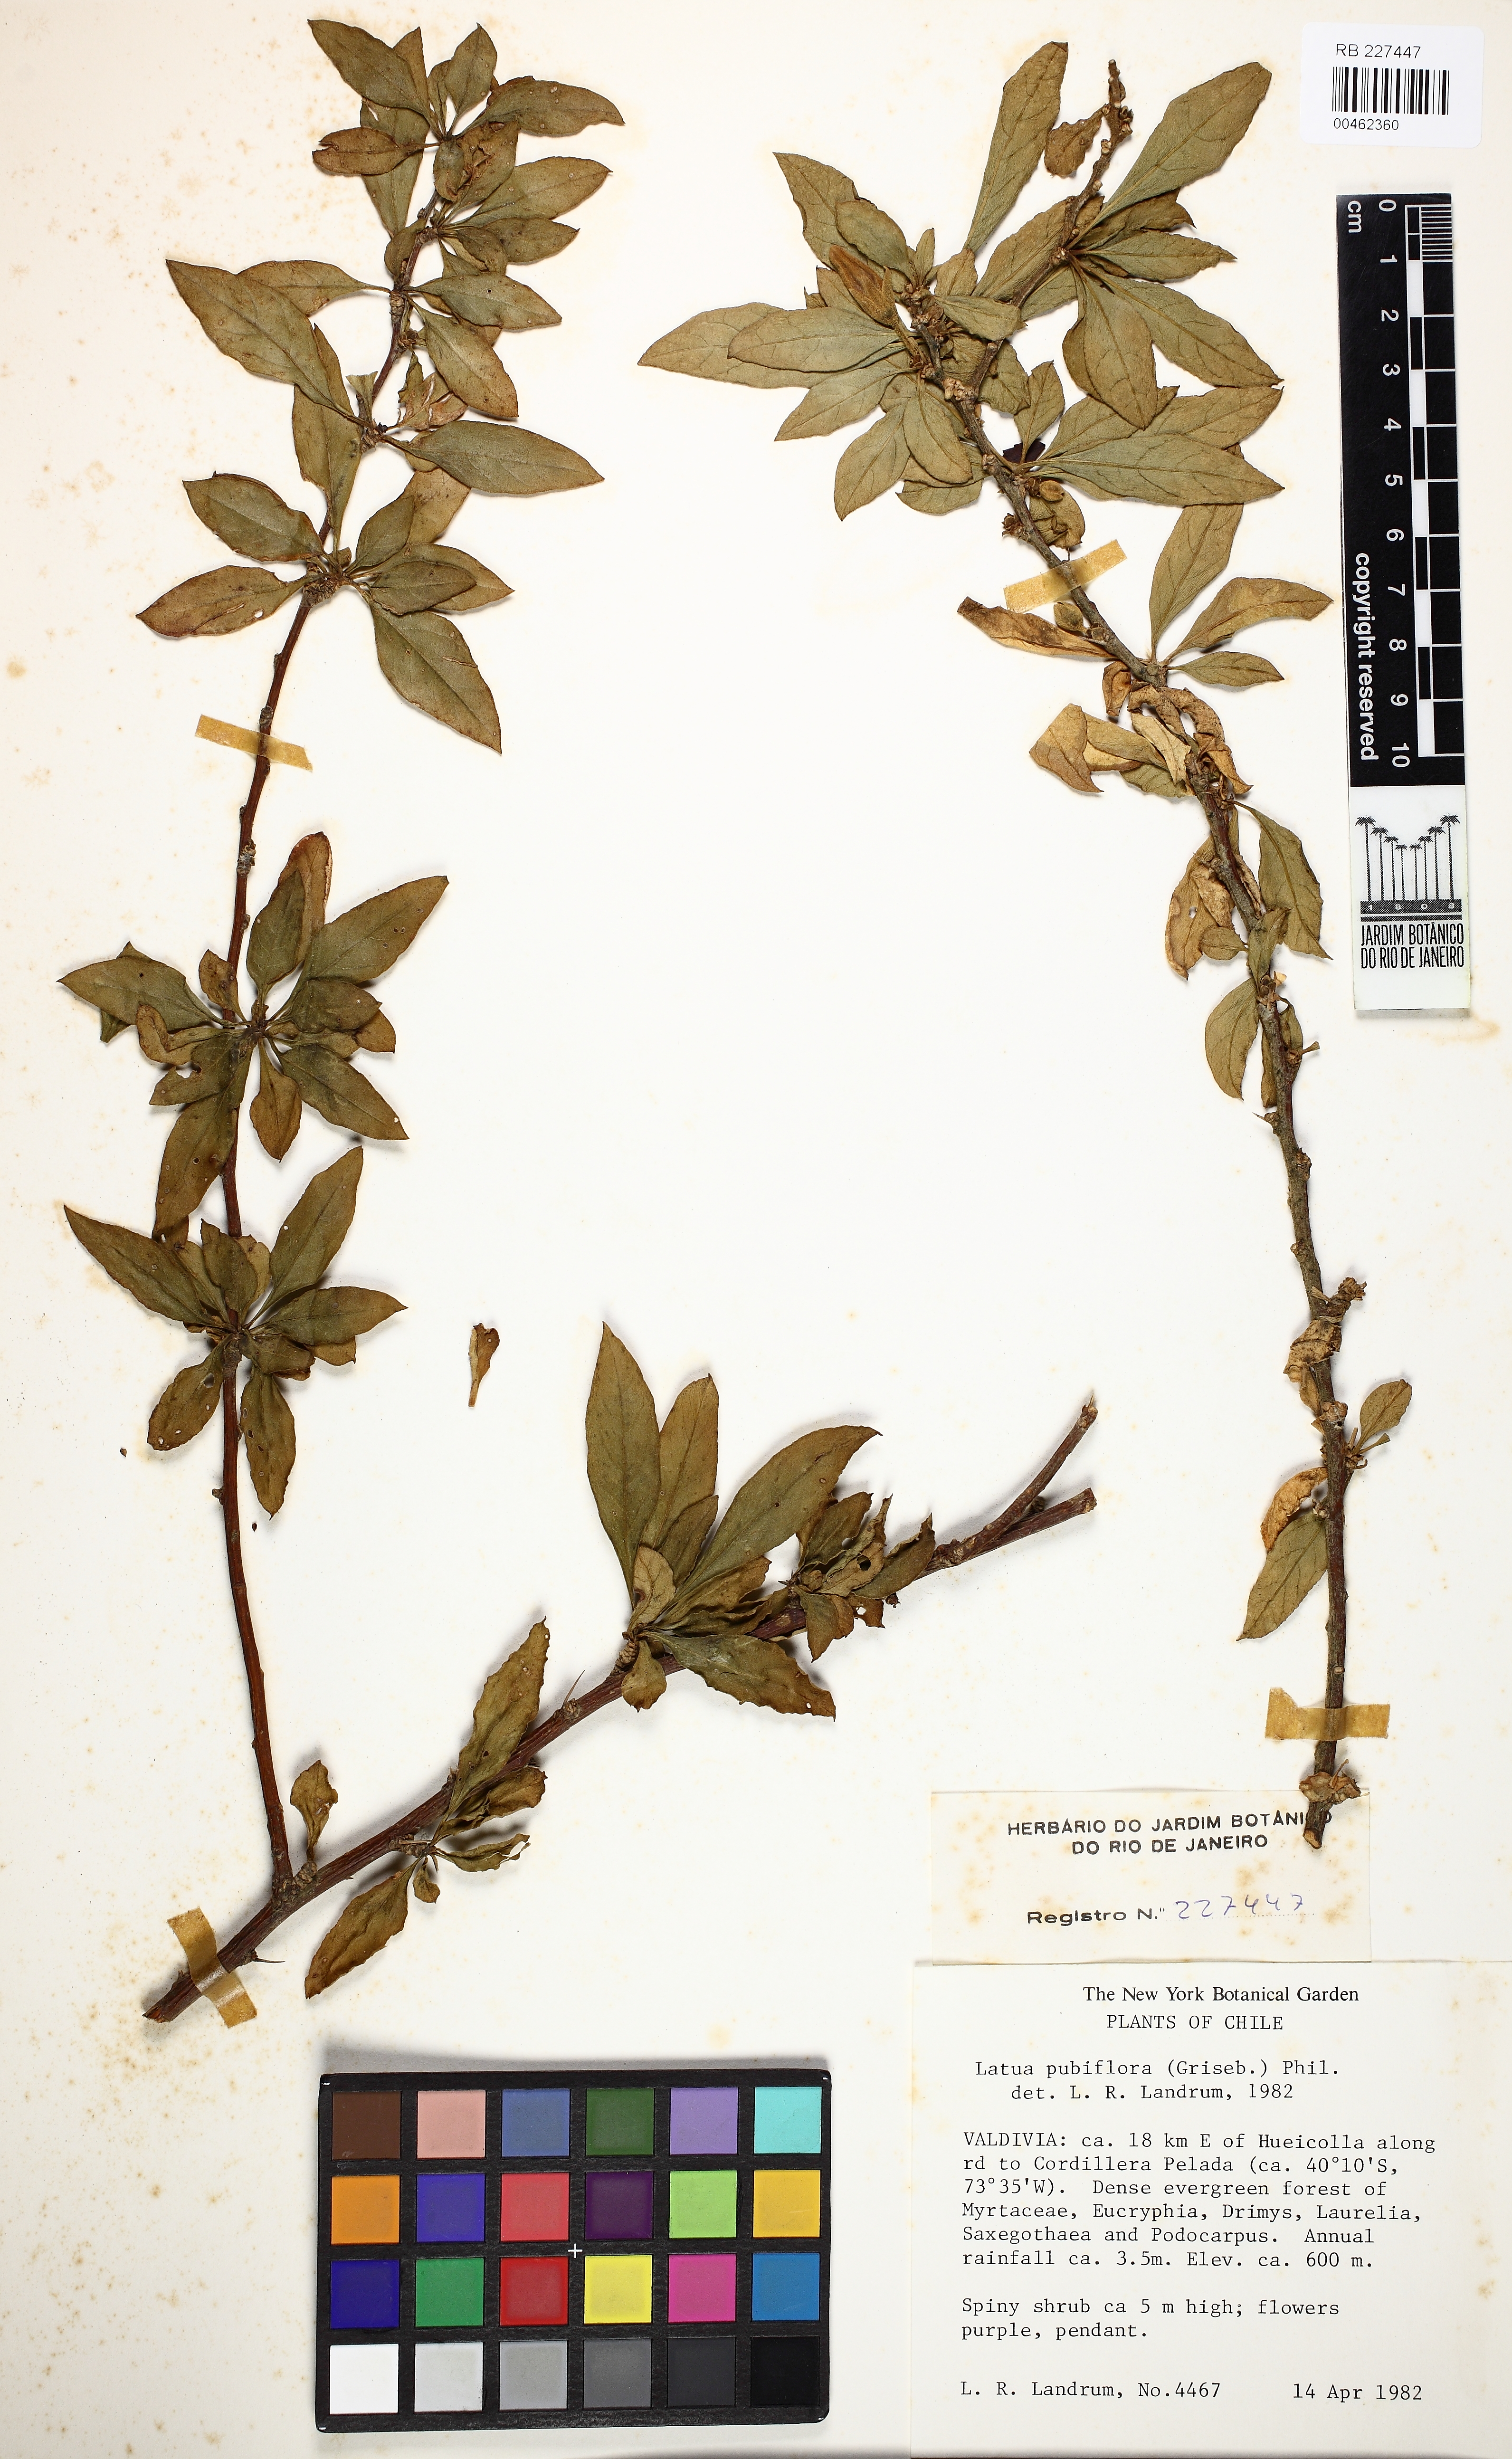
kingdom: Plantae
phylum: Tracheophyta
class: Magnoliopsida
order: Solanales
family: Solanaceae
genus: Latua
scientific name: Latua pubiflora
